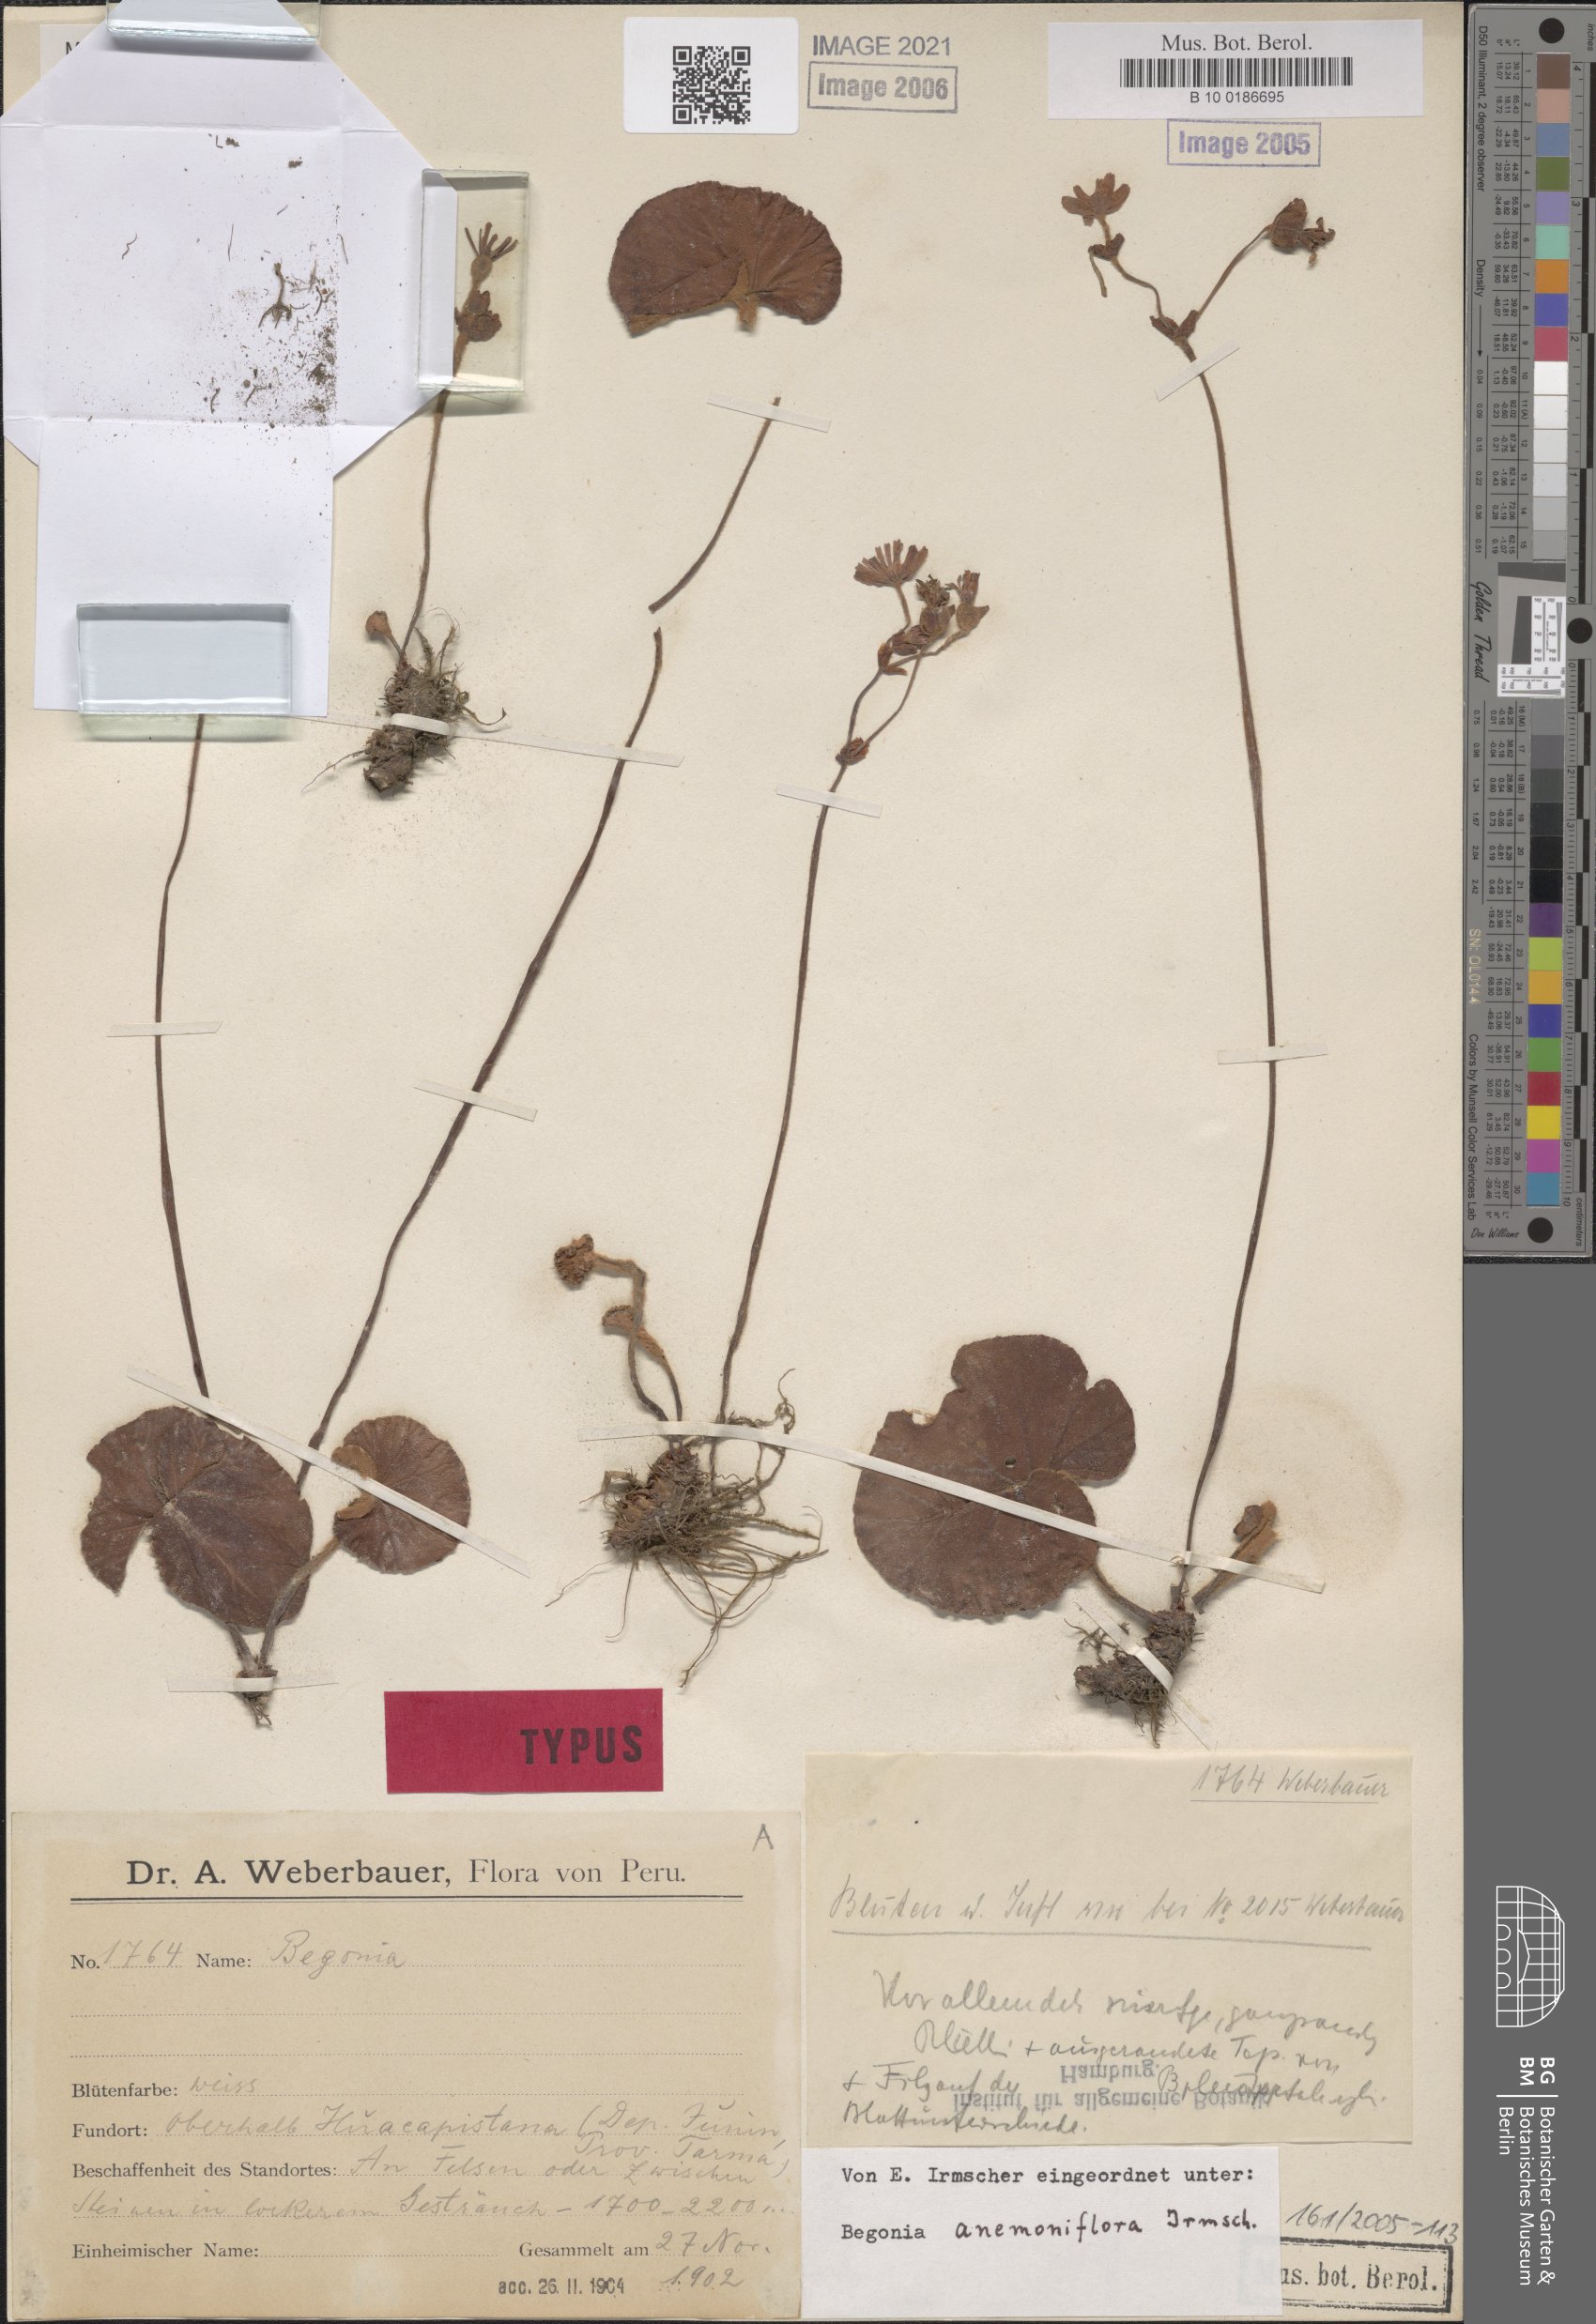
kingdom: Plantae
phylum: Tracheophyta
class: Magnoliopsida
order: Cucurbitales
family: Begoniaceae
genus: Begonia
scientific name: Begonia anemoniflora
